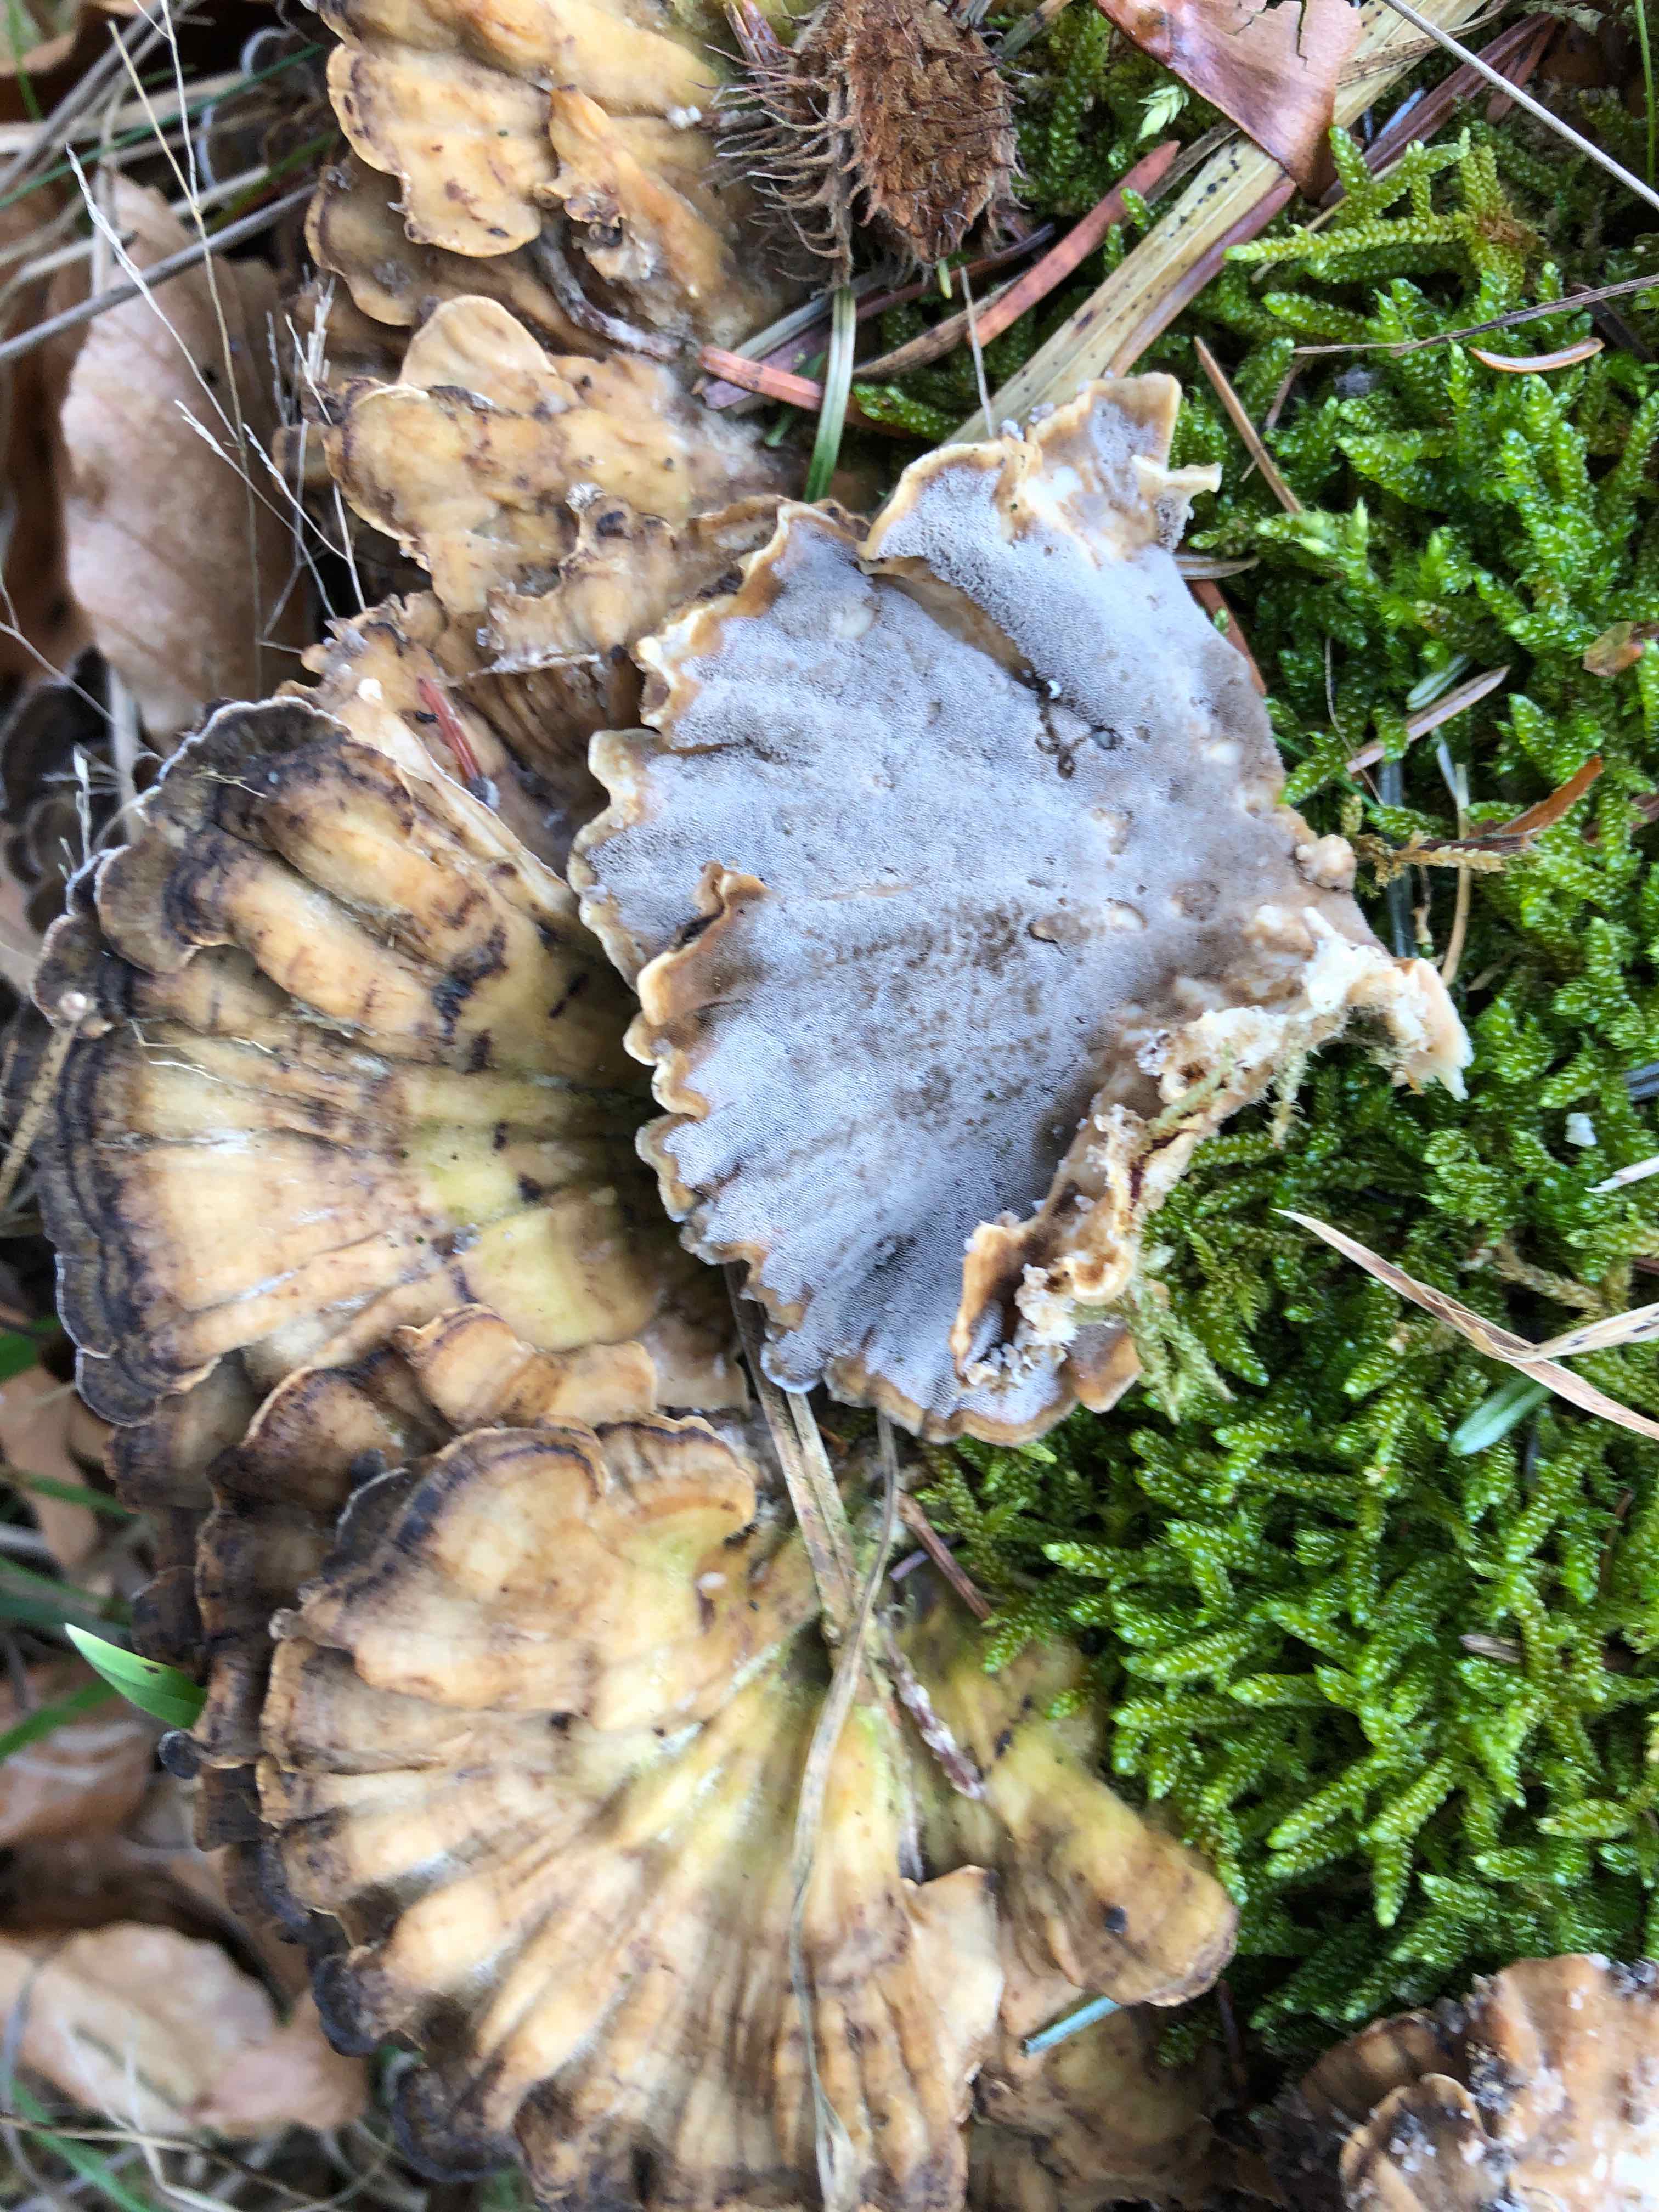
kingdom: Fungi
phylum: Basidiomycota
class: Agaricomycetes
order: Polyporales
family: Phanerochaetaceae
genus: Bjerkandera
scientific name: Bjerkandera adusta
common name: sveden sodporesvamp
